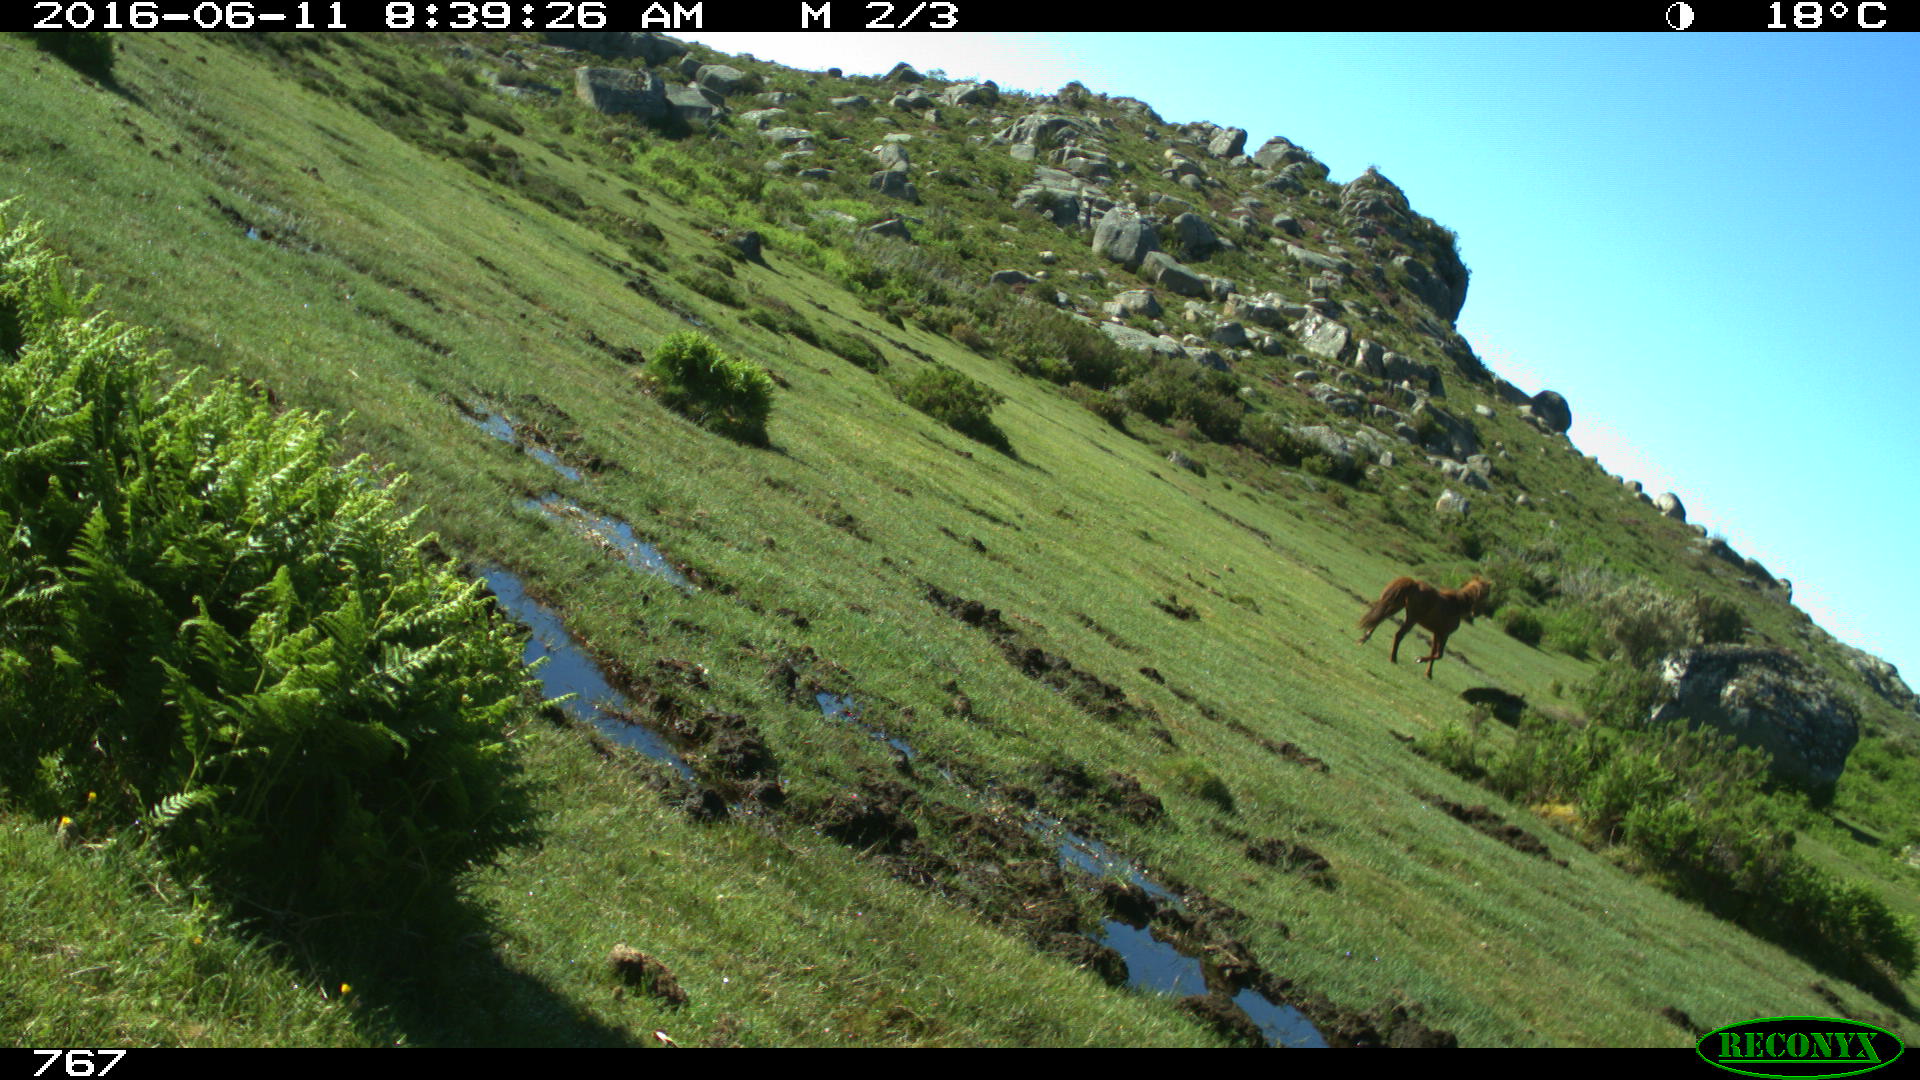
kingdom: Animalia
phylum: Chordata
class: Mammalia
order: Perissodactyla
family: Equidae
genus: Equus
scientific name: Equus caballus
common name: Horse
